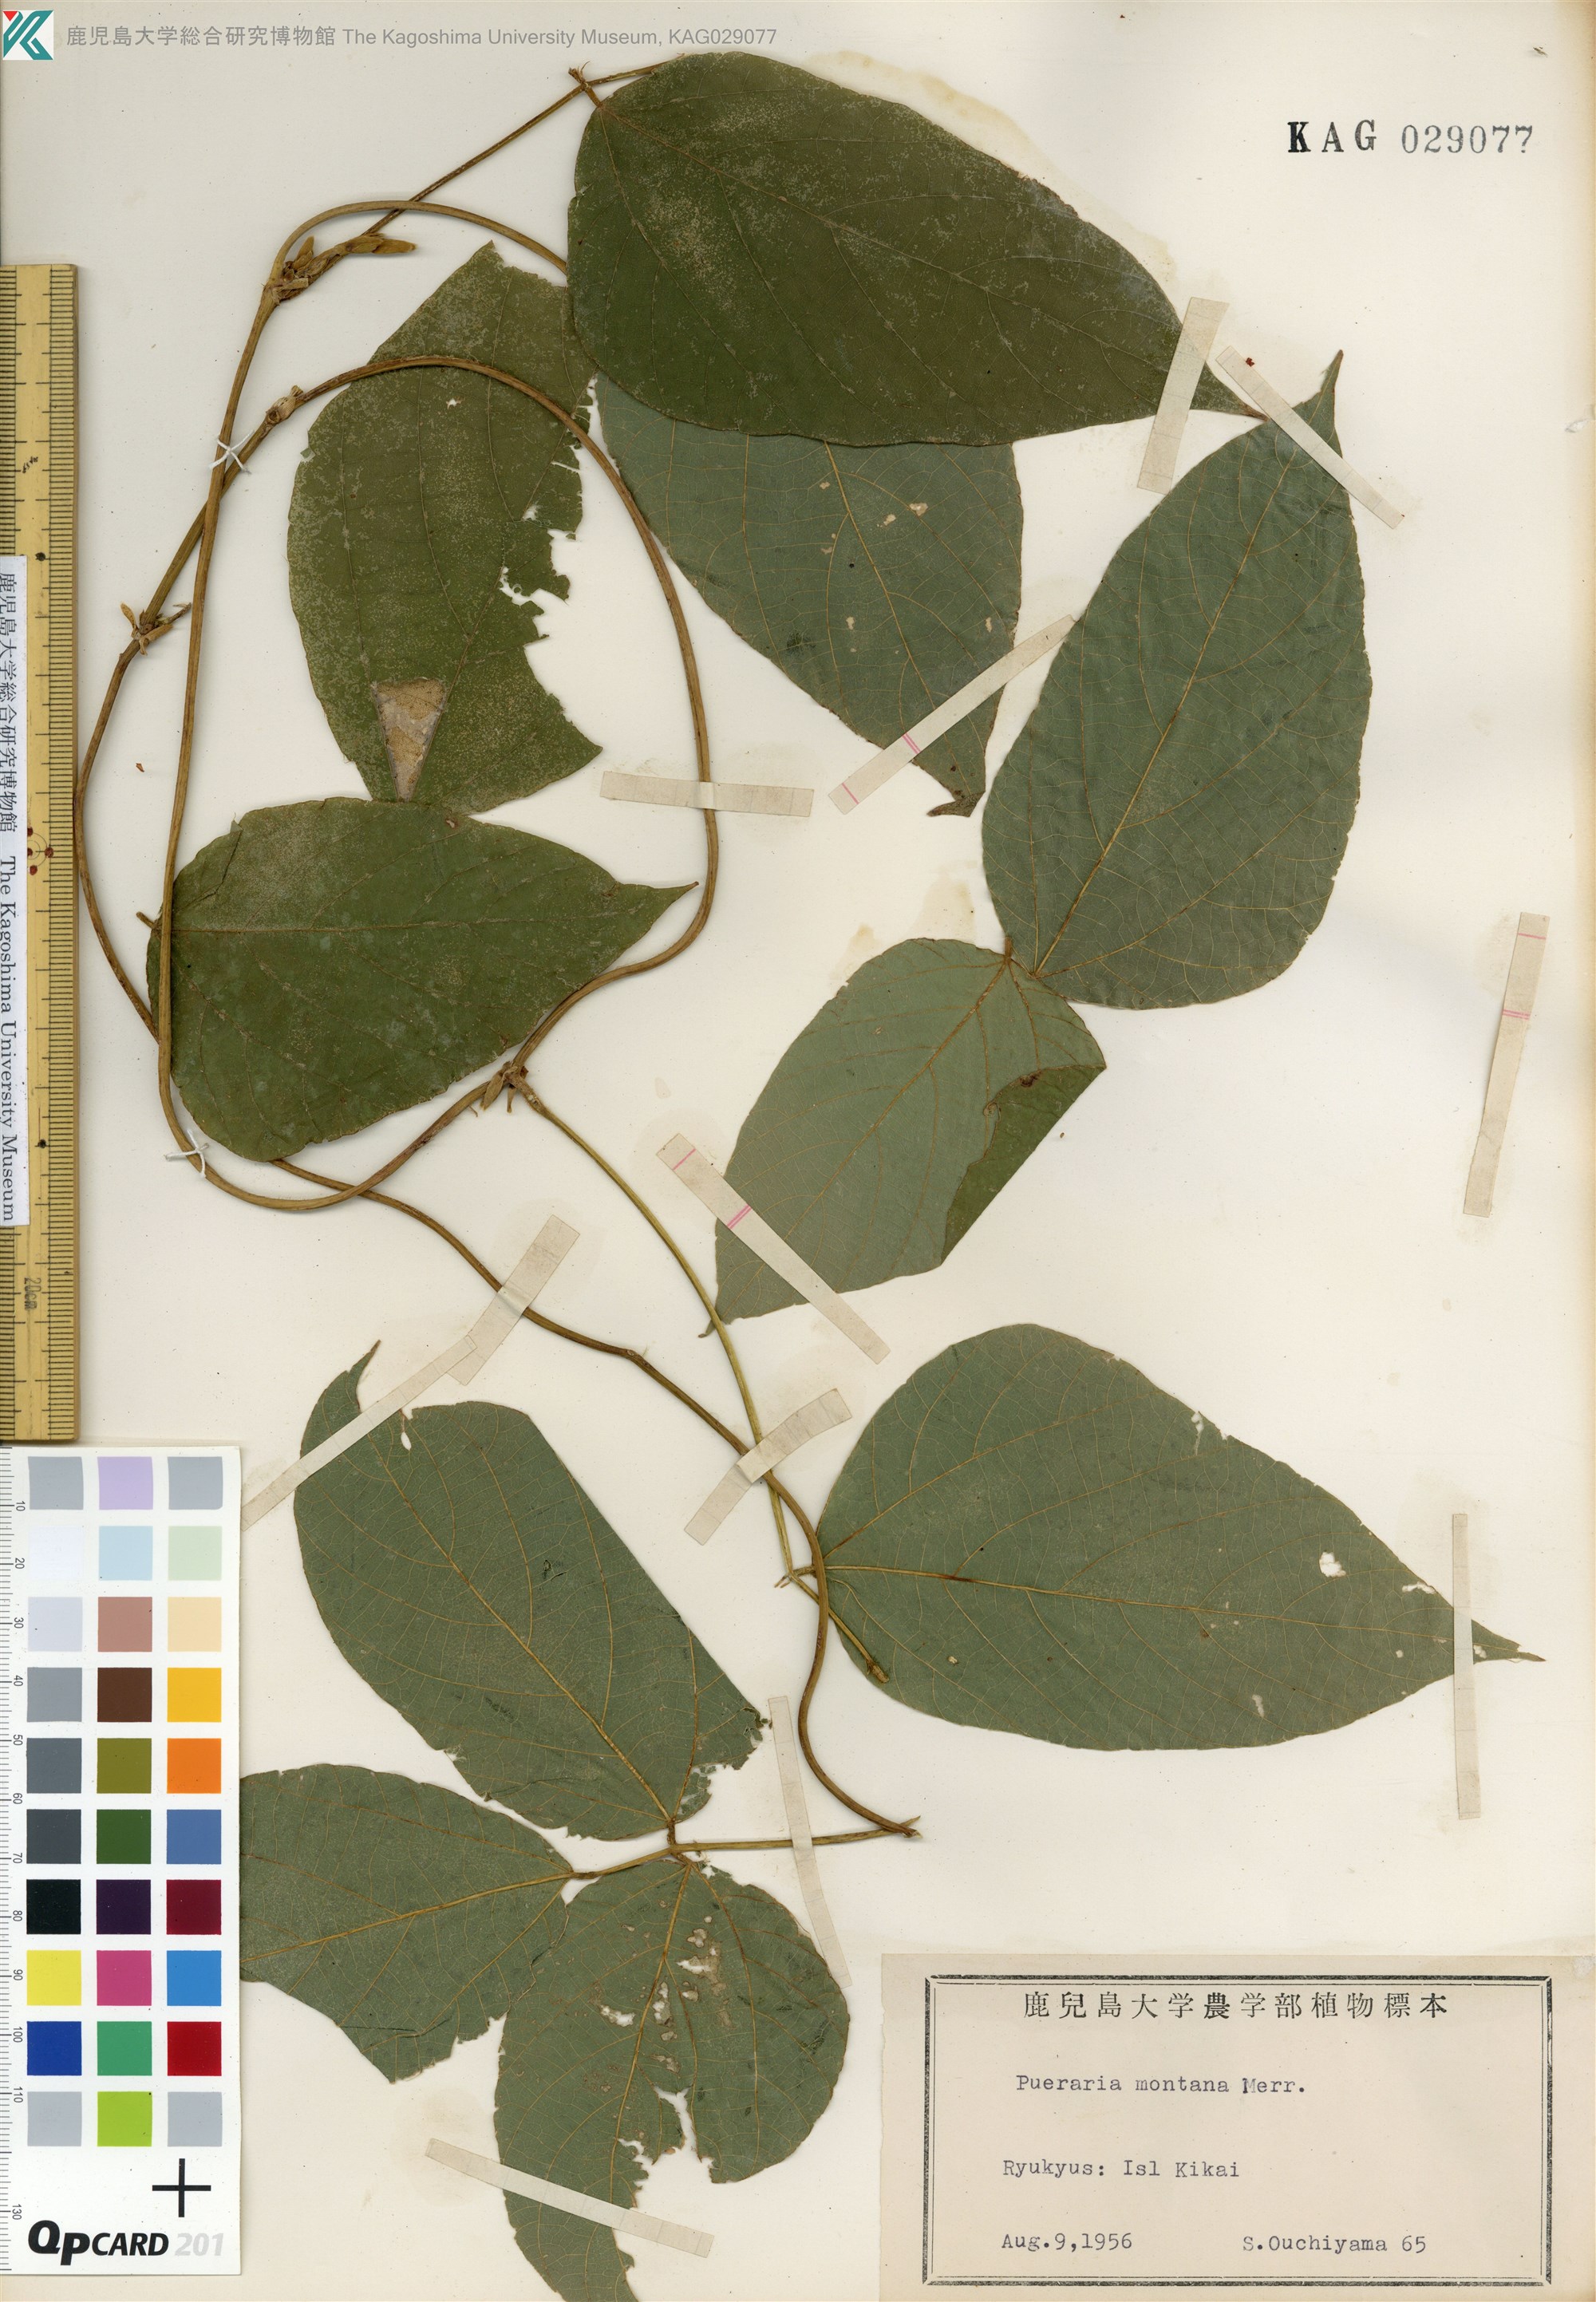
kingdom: Plantae
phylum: Tracheophyta
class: Magnoliopsida
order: Fabales
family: Fabaceae
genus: Pueraria
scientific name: Pueraria montana
